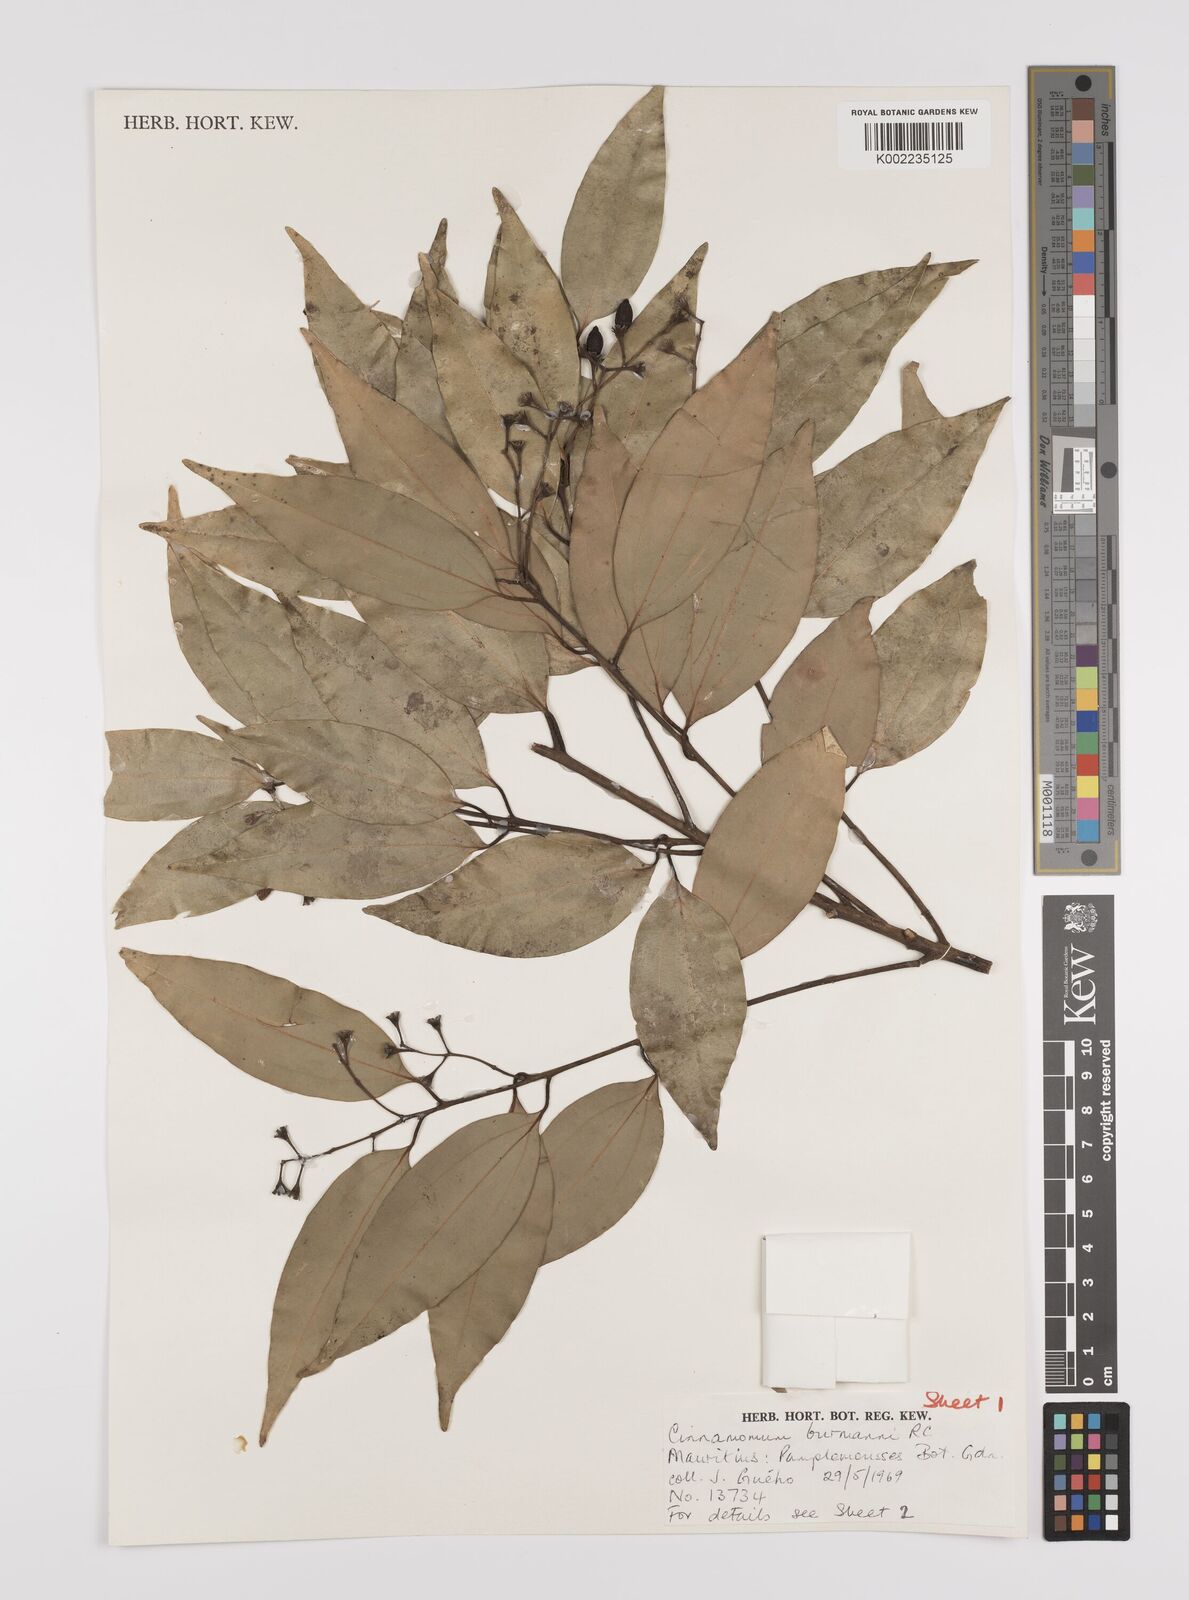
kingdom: Plantae
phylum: Tracheophyta
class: Magnoliopsida
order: Laurales
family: Lauraceae
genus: Cinnamomum
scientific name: Cinnamomum burmanni
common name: Padang cassia
